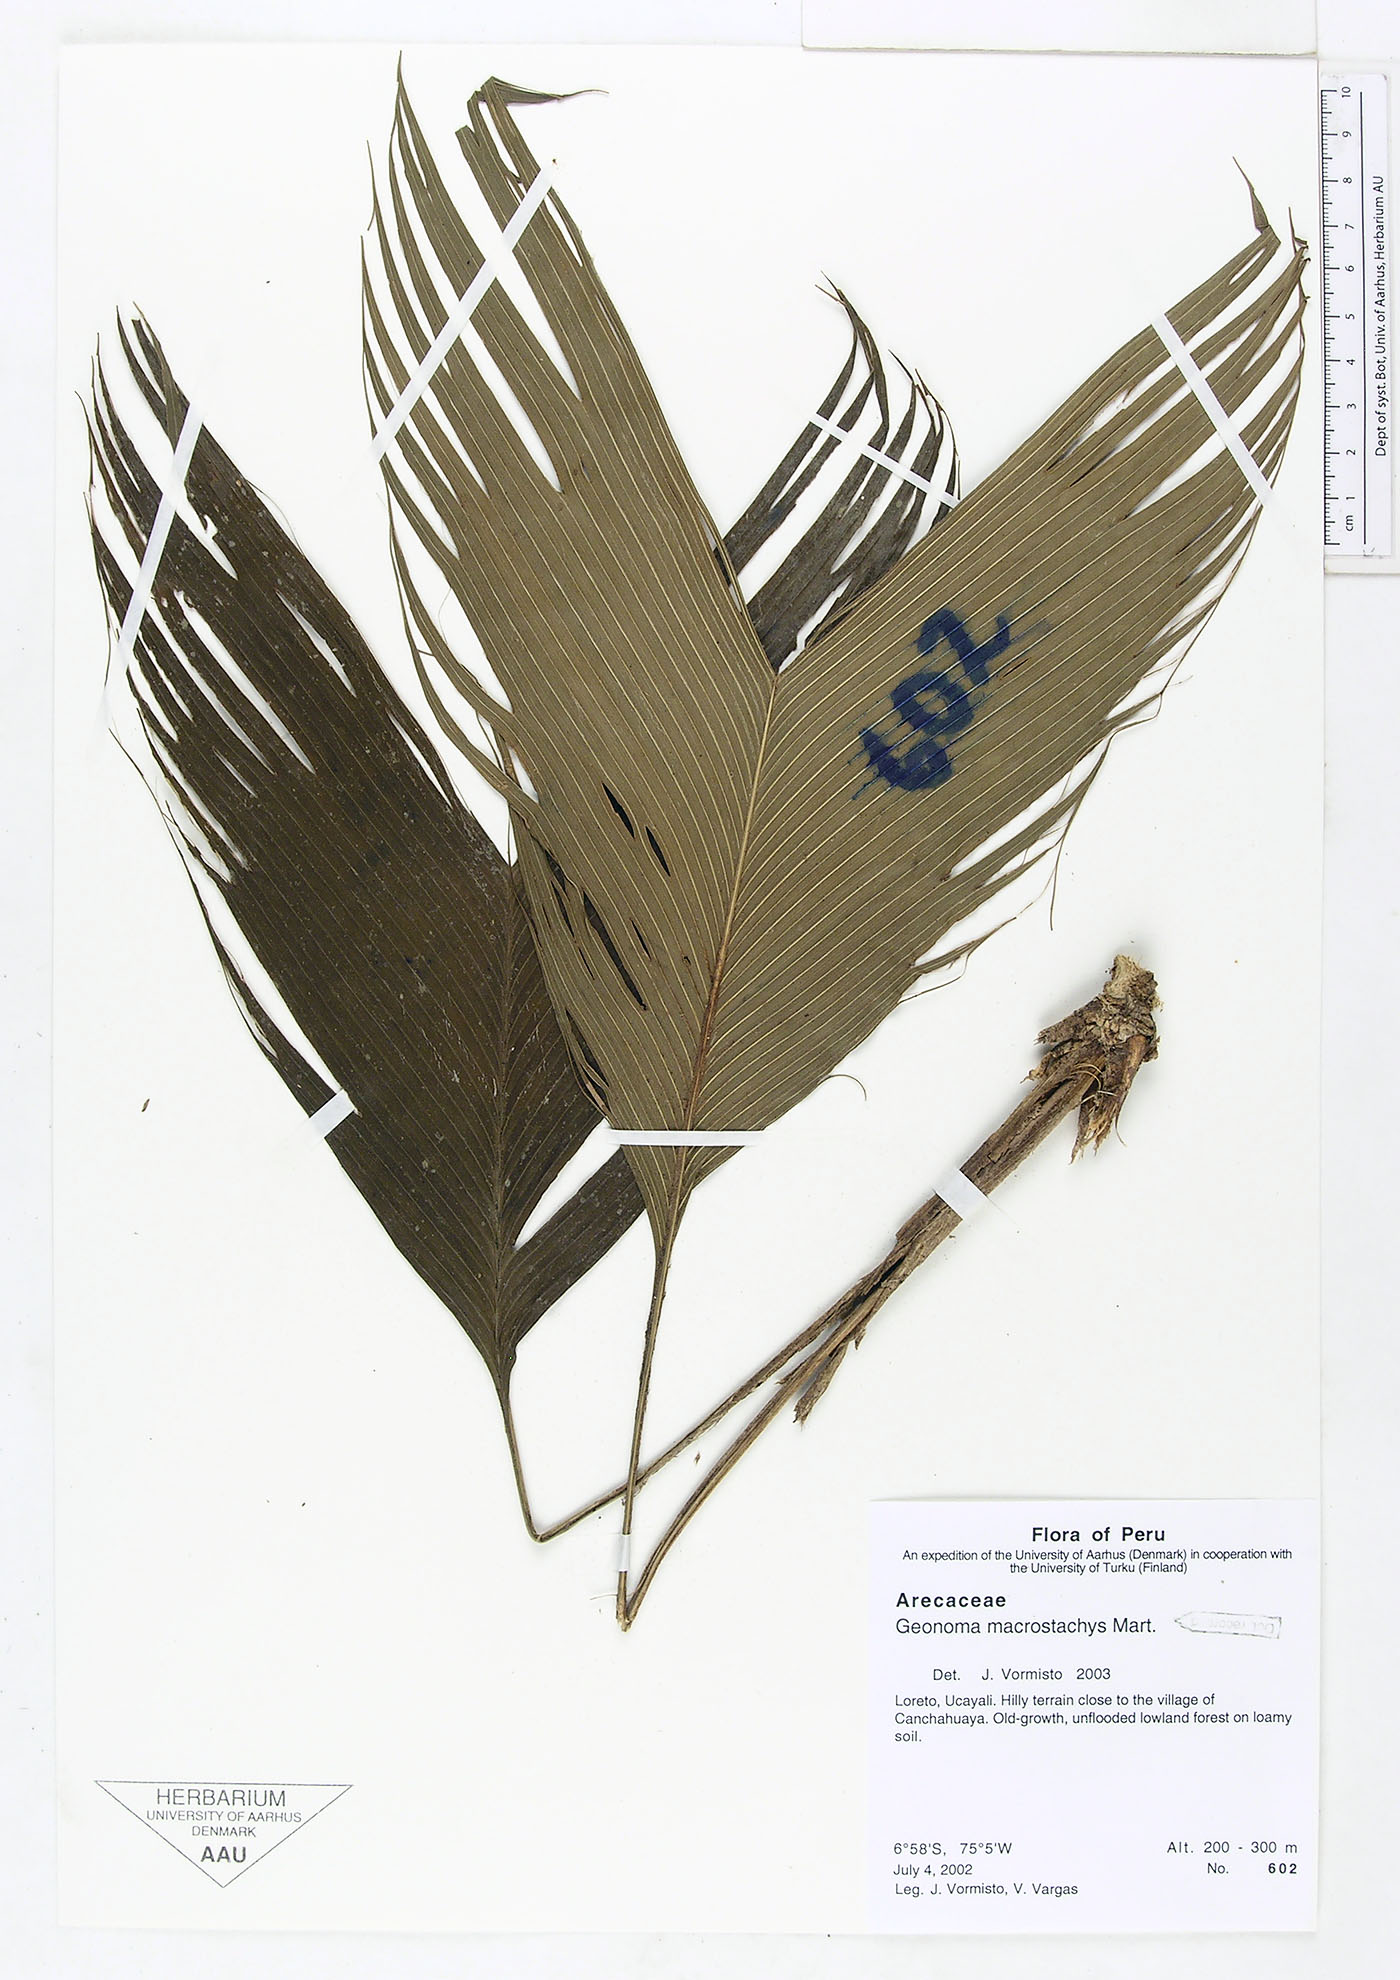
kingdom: Plantae
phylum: Tracheophyta
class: Liliopsida
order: Arecales
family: Arecaceae
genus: Geonoma
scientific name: Geonoma macrostachys
